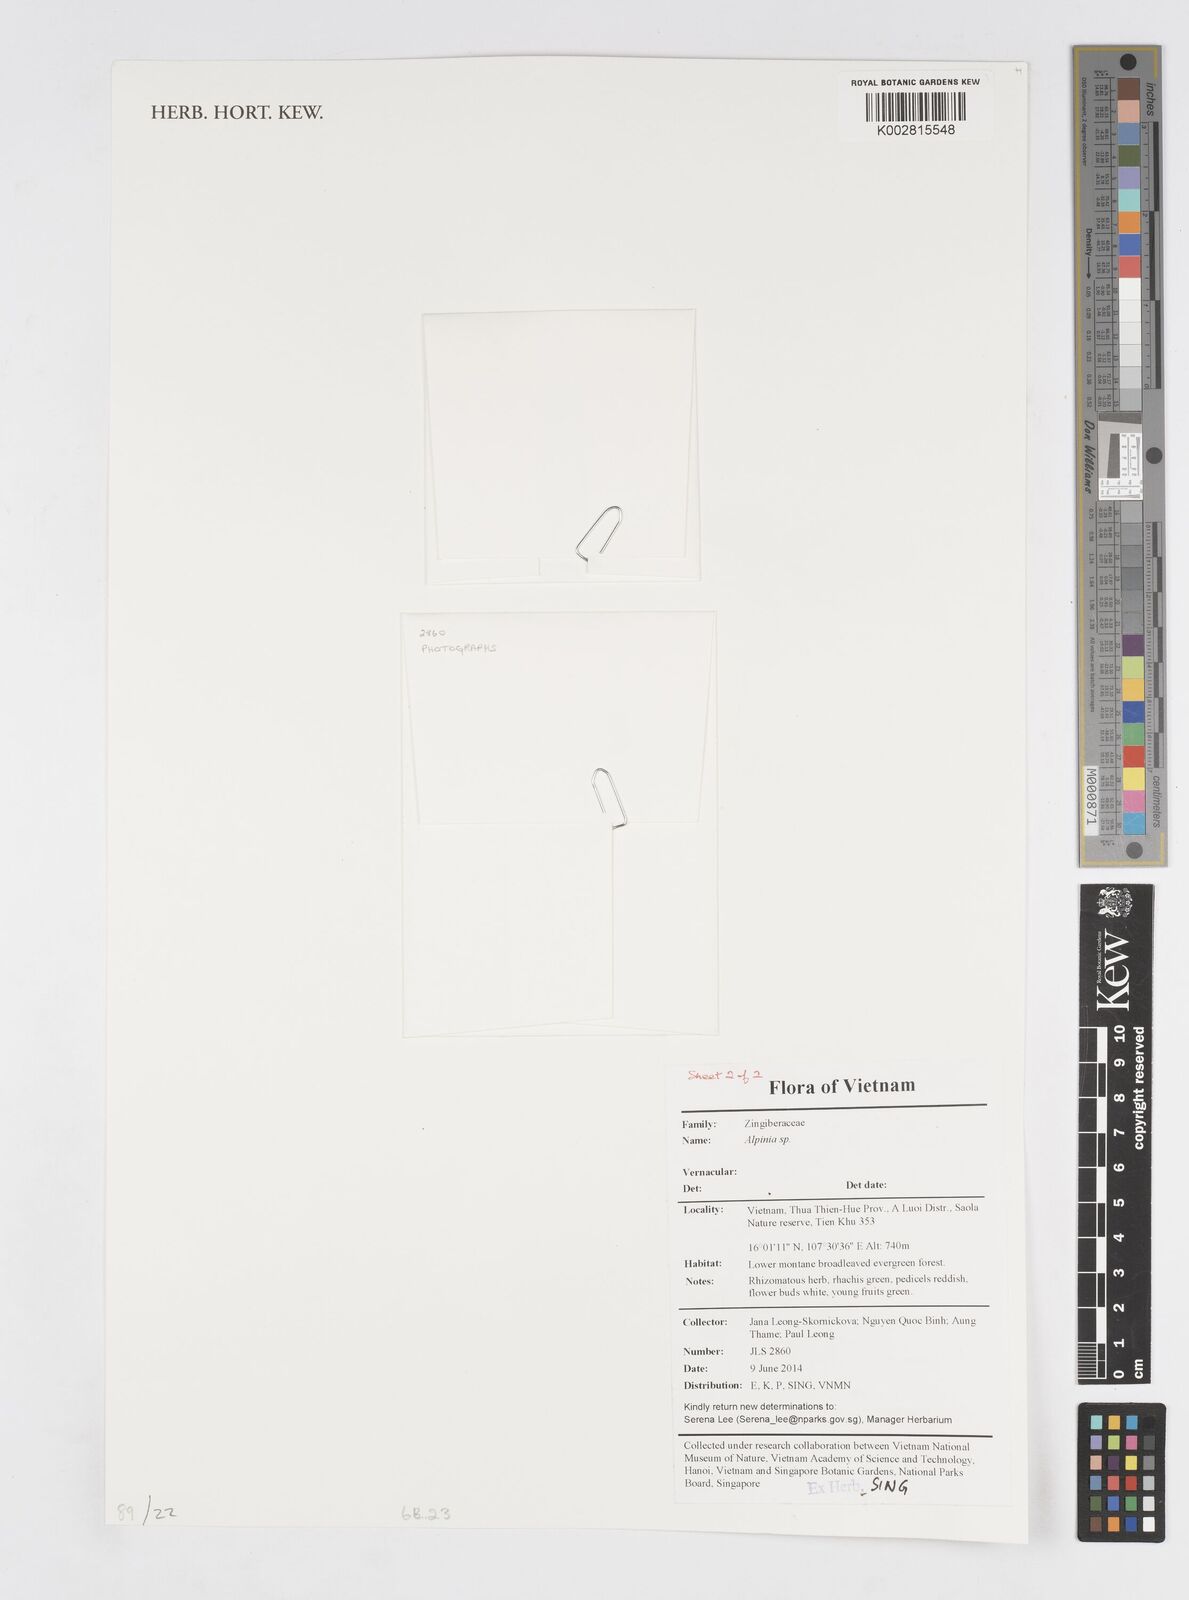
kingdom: Plantae
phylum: Tracheophyta
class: Liliopsida
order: Zingiberales
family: Zingiberaceae
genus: Alpinia
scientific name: Alpinia
